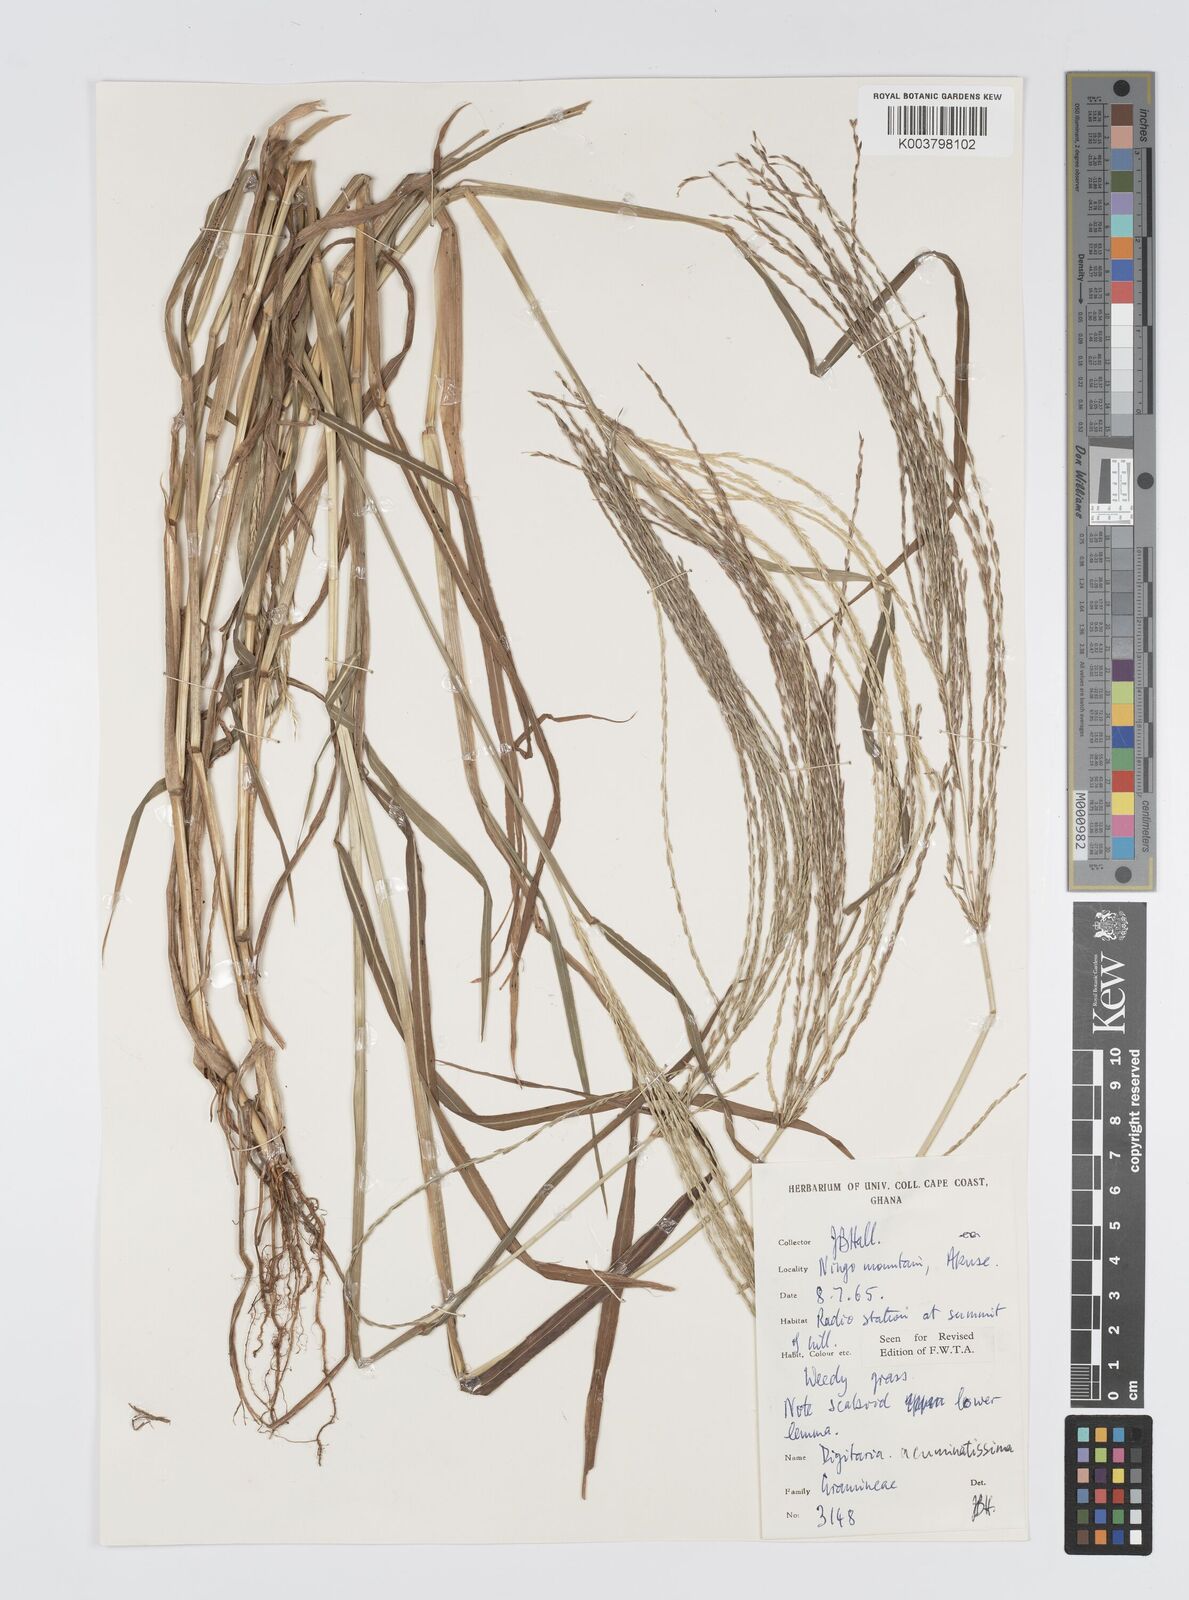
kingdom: Plantae
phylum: Tracheophyta
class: Liliopsida
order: Poales
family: Poaceae
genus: Digitaria
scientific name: Digitaria
